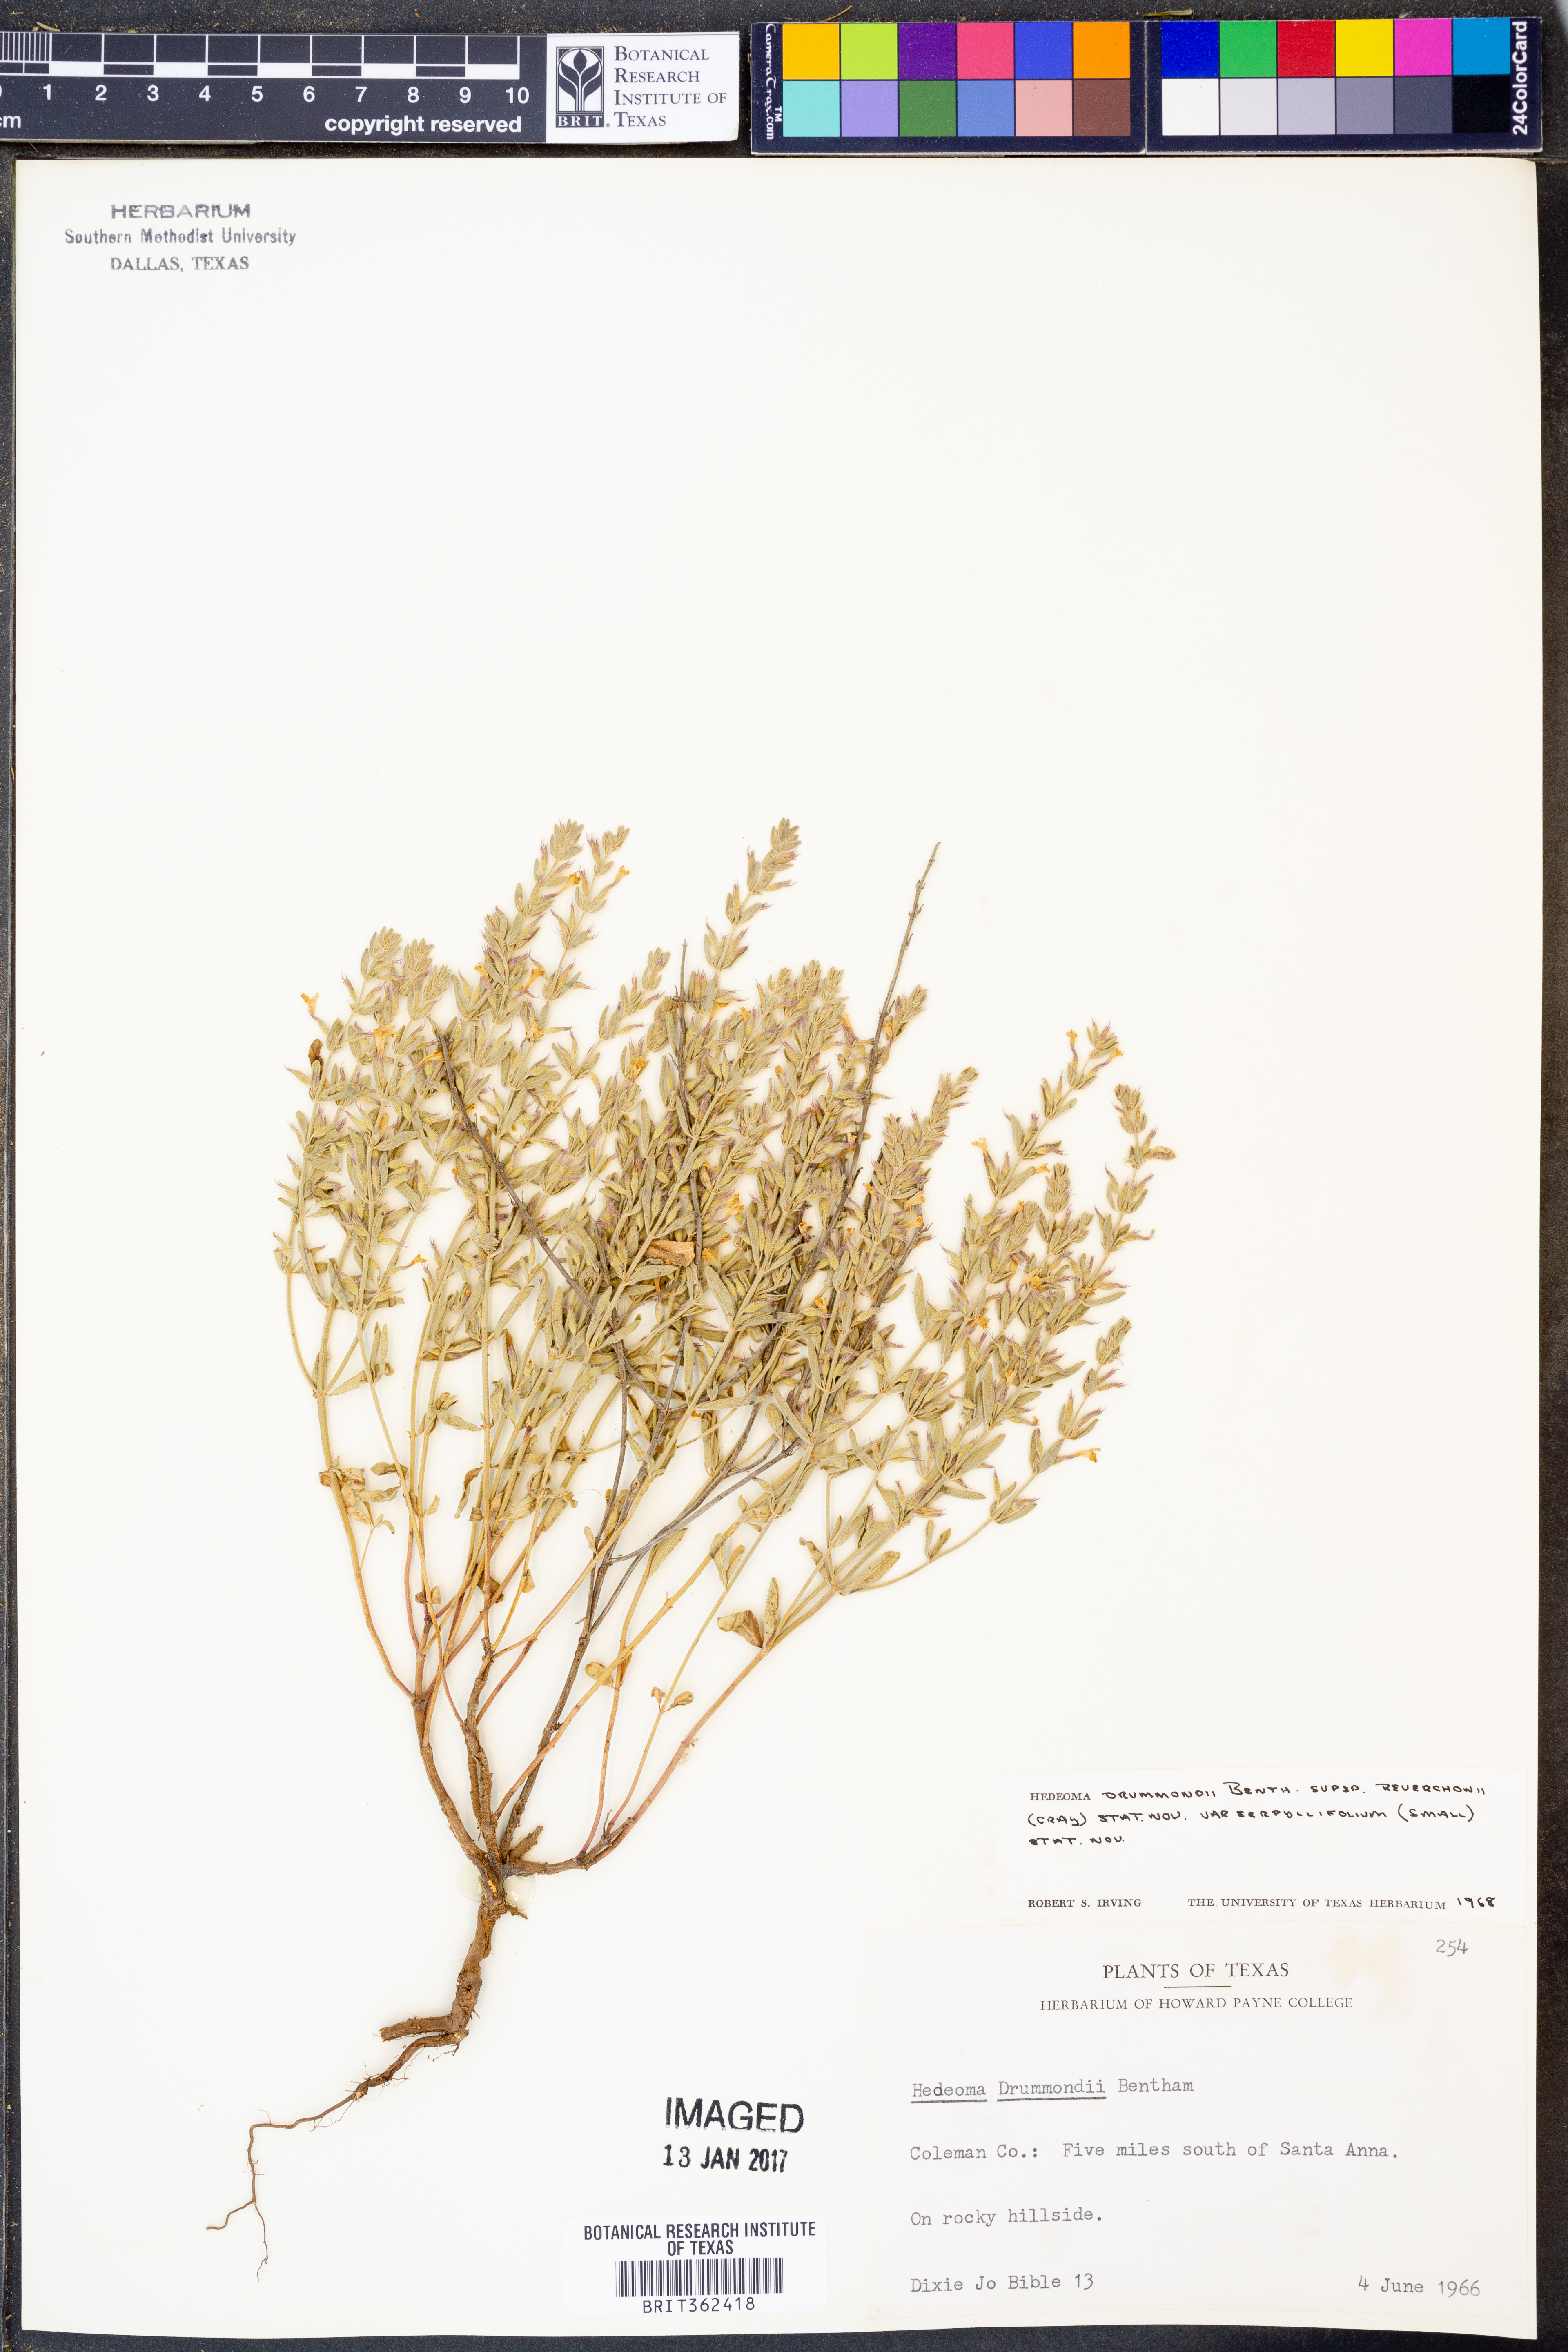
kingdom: Plantae
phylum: Tracheophyta
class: Magnoliopsida
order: Lamiales
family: Lamiaceae
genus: Hedeoma
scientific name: Hedeoma drummondii
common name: New mexico pennyroyal
